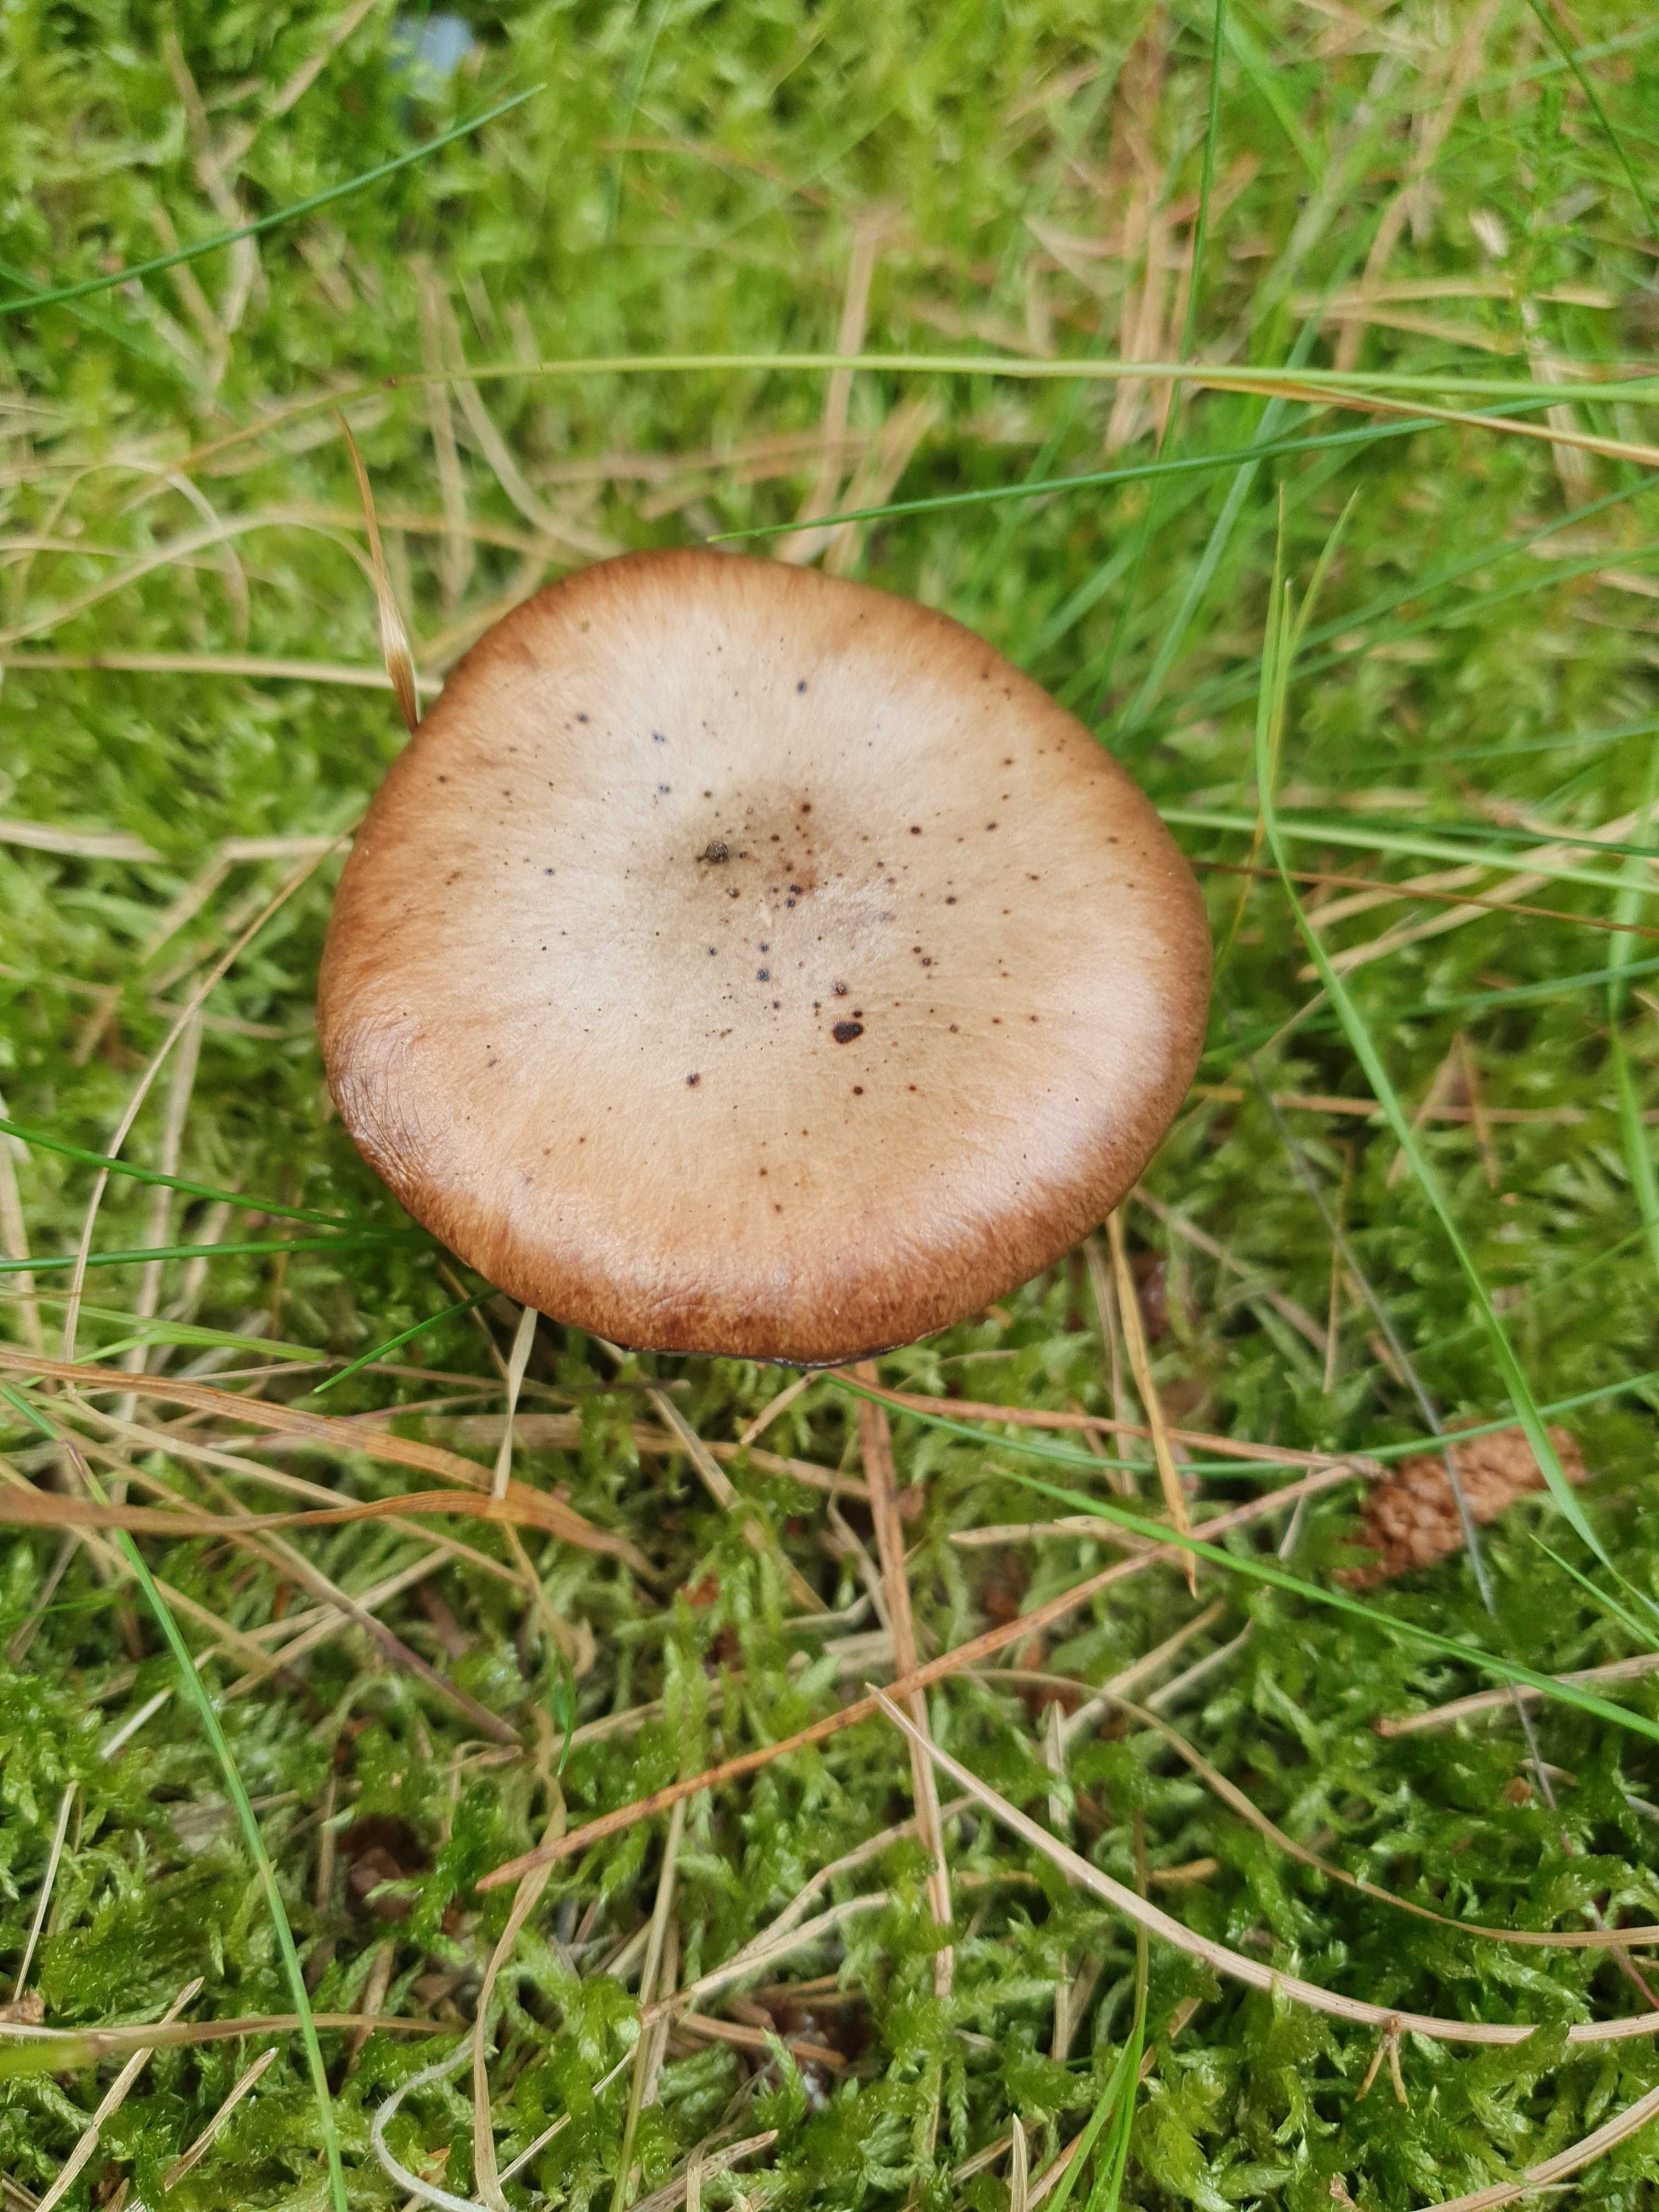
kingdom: Fungi
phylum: Basidiomycota
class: Agaricomycetes
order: Boletales
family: Gomphidiaceae
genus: Gomphidius
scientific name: Gomphidius glutinosus
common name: grå slimslør
